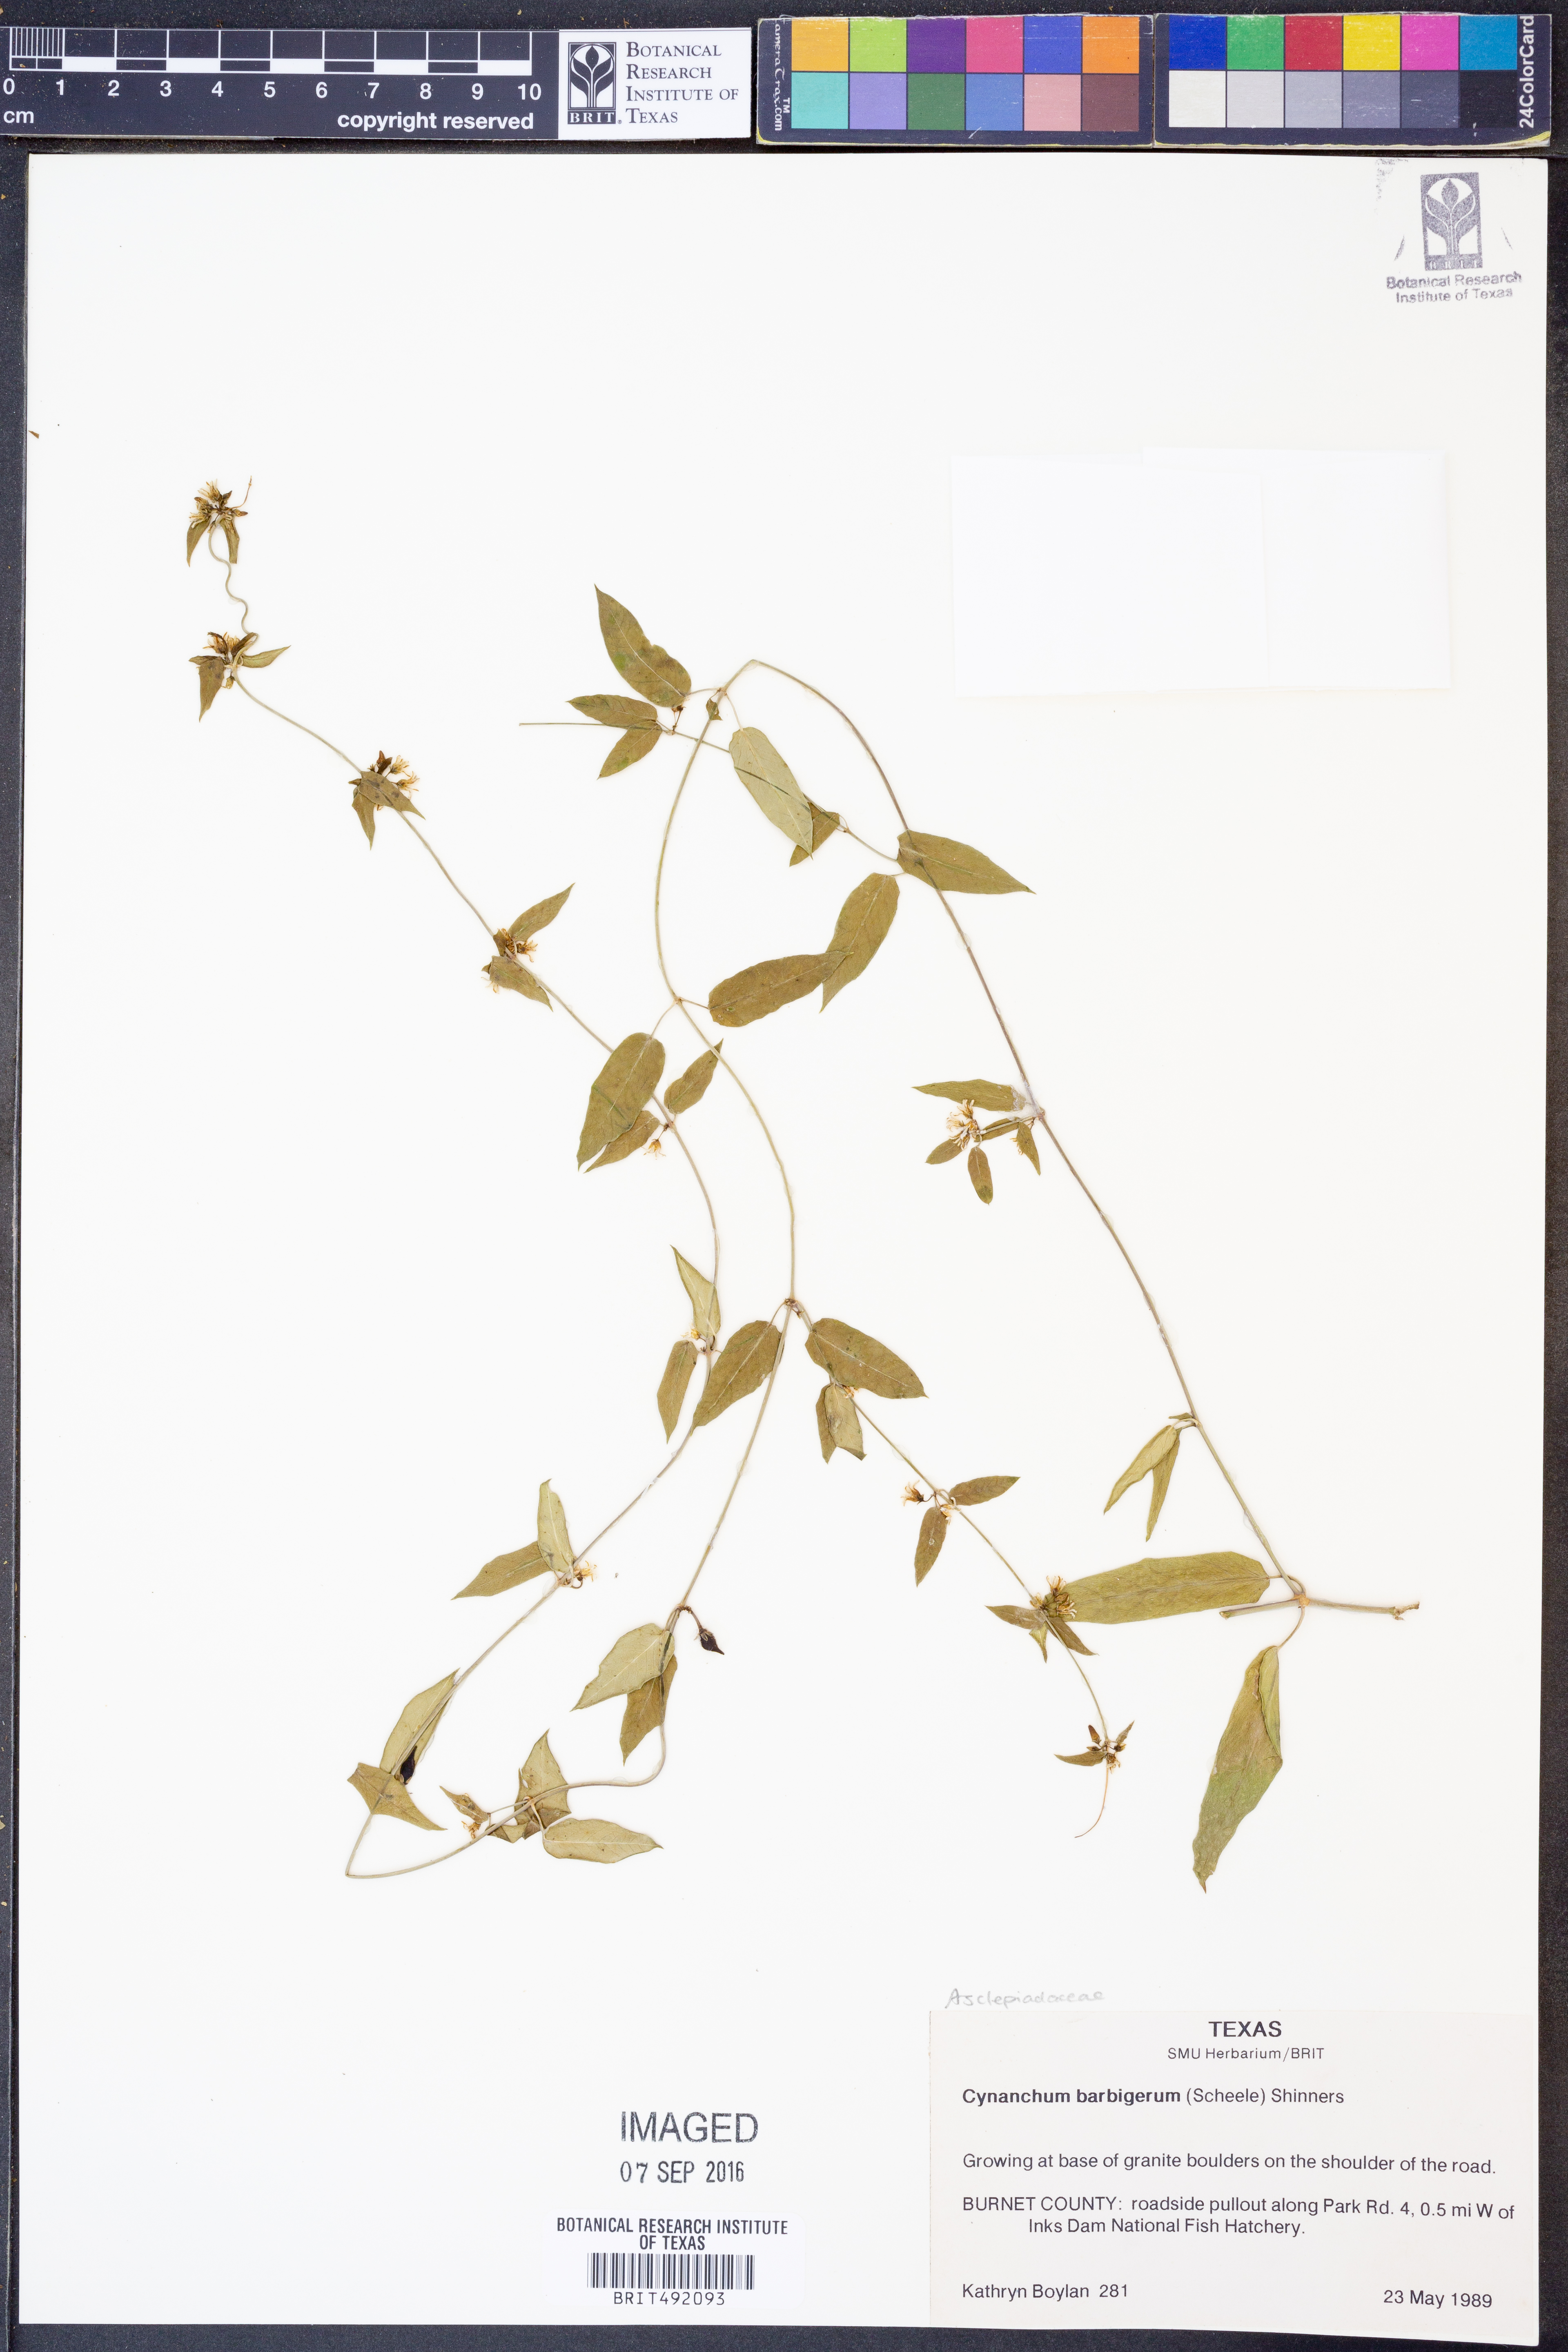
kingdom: Plantae
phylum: Tracheophyta
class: Magnoliopsida
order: Gentianales
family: Apocynaceae
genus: Metastelma
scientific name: Metastelma barbigerum
